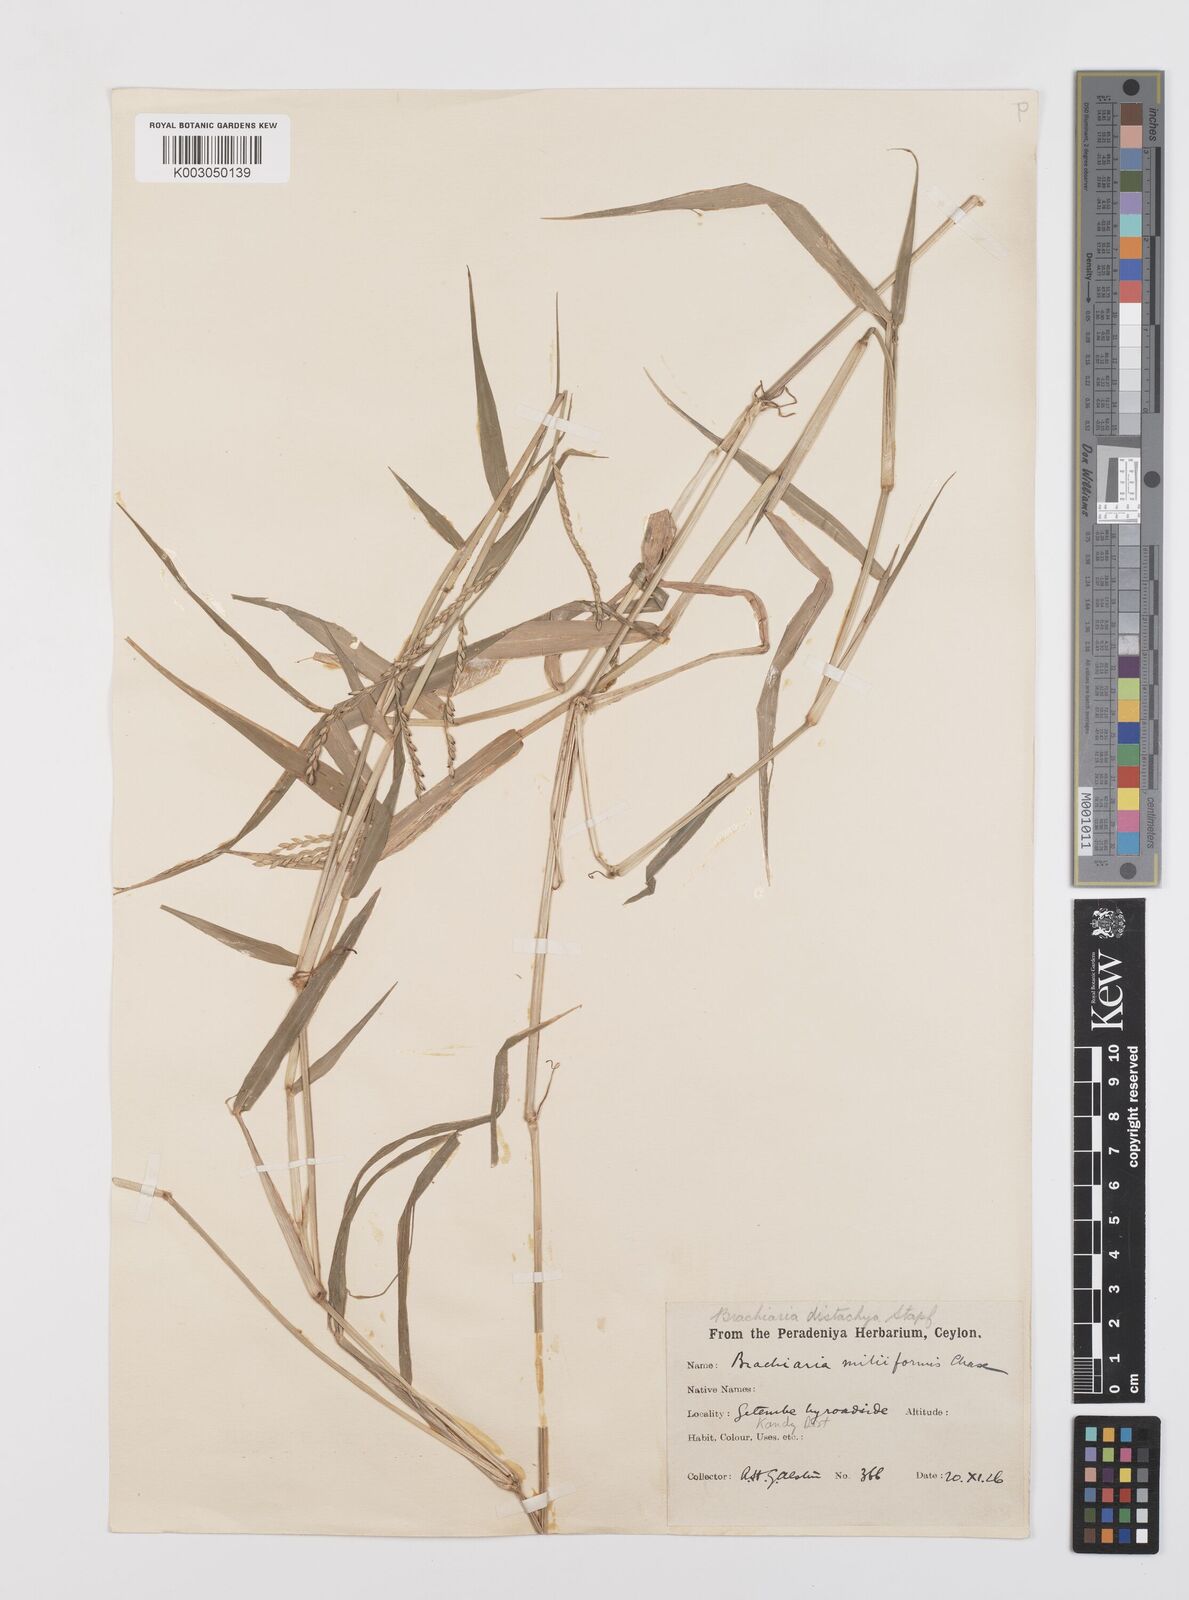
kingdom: Plantae
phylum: Tracheophyta
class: Liliopsida
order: Poales
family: Poaceae
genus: Urochloa
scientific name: Urochloa subquadripara
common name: Armgrass millet
